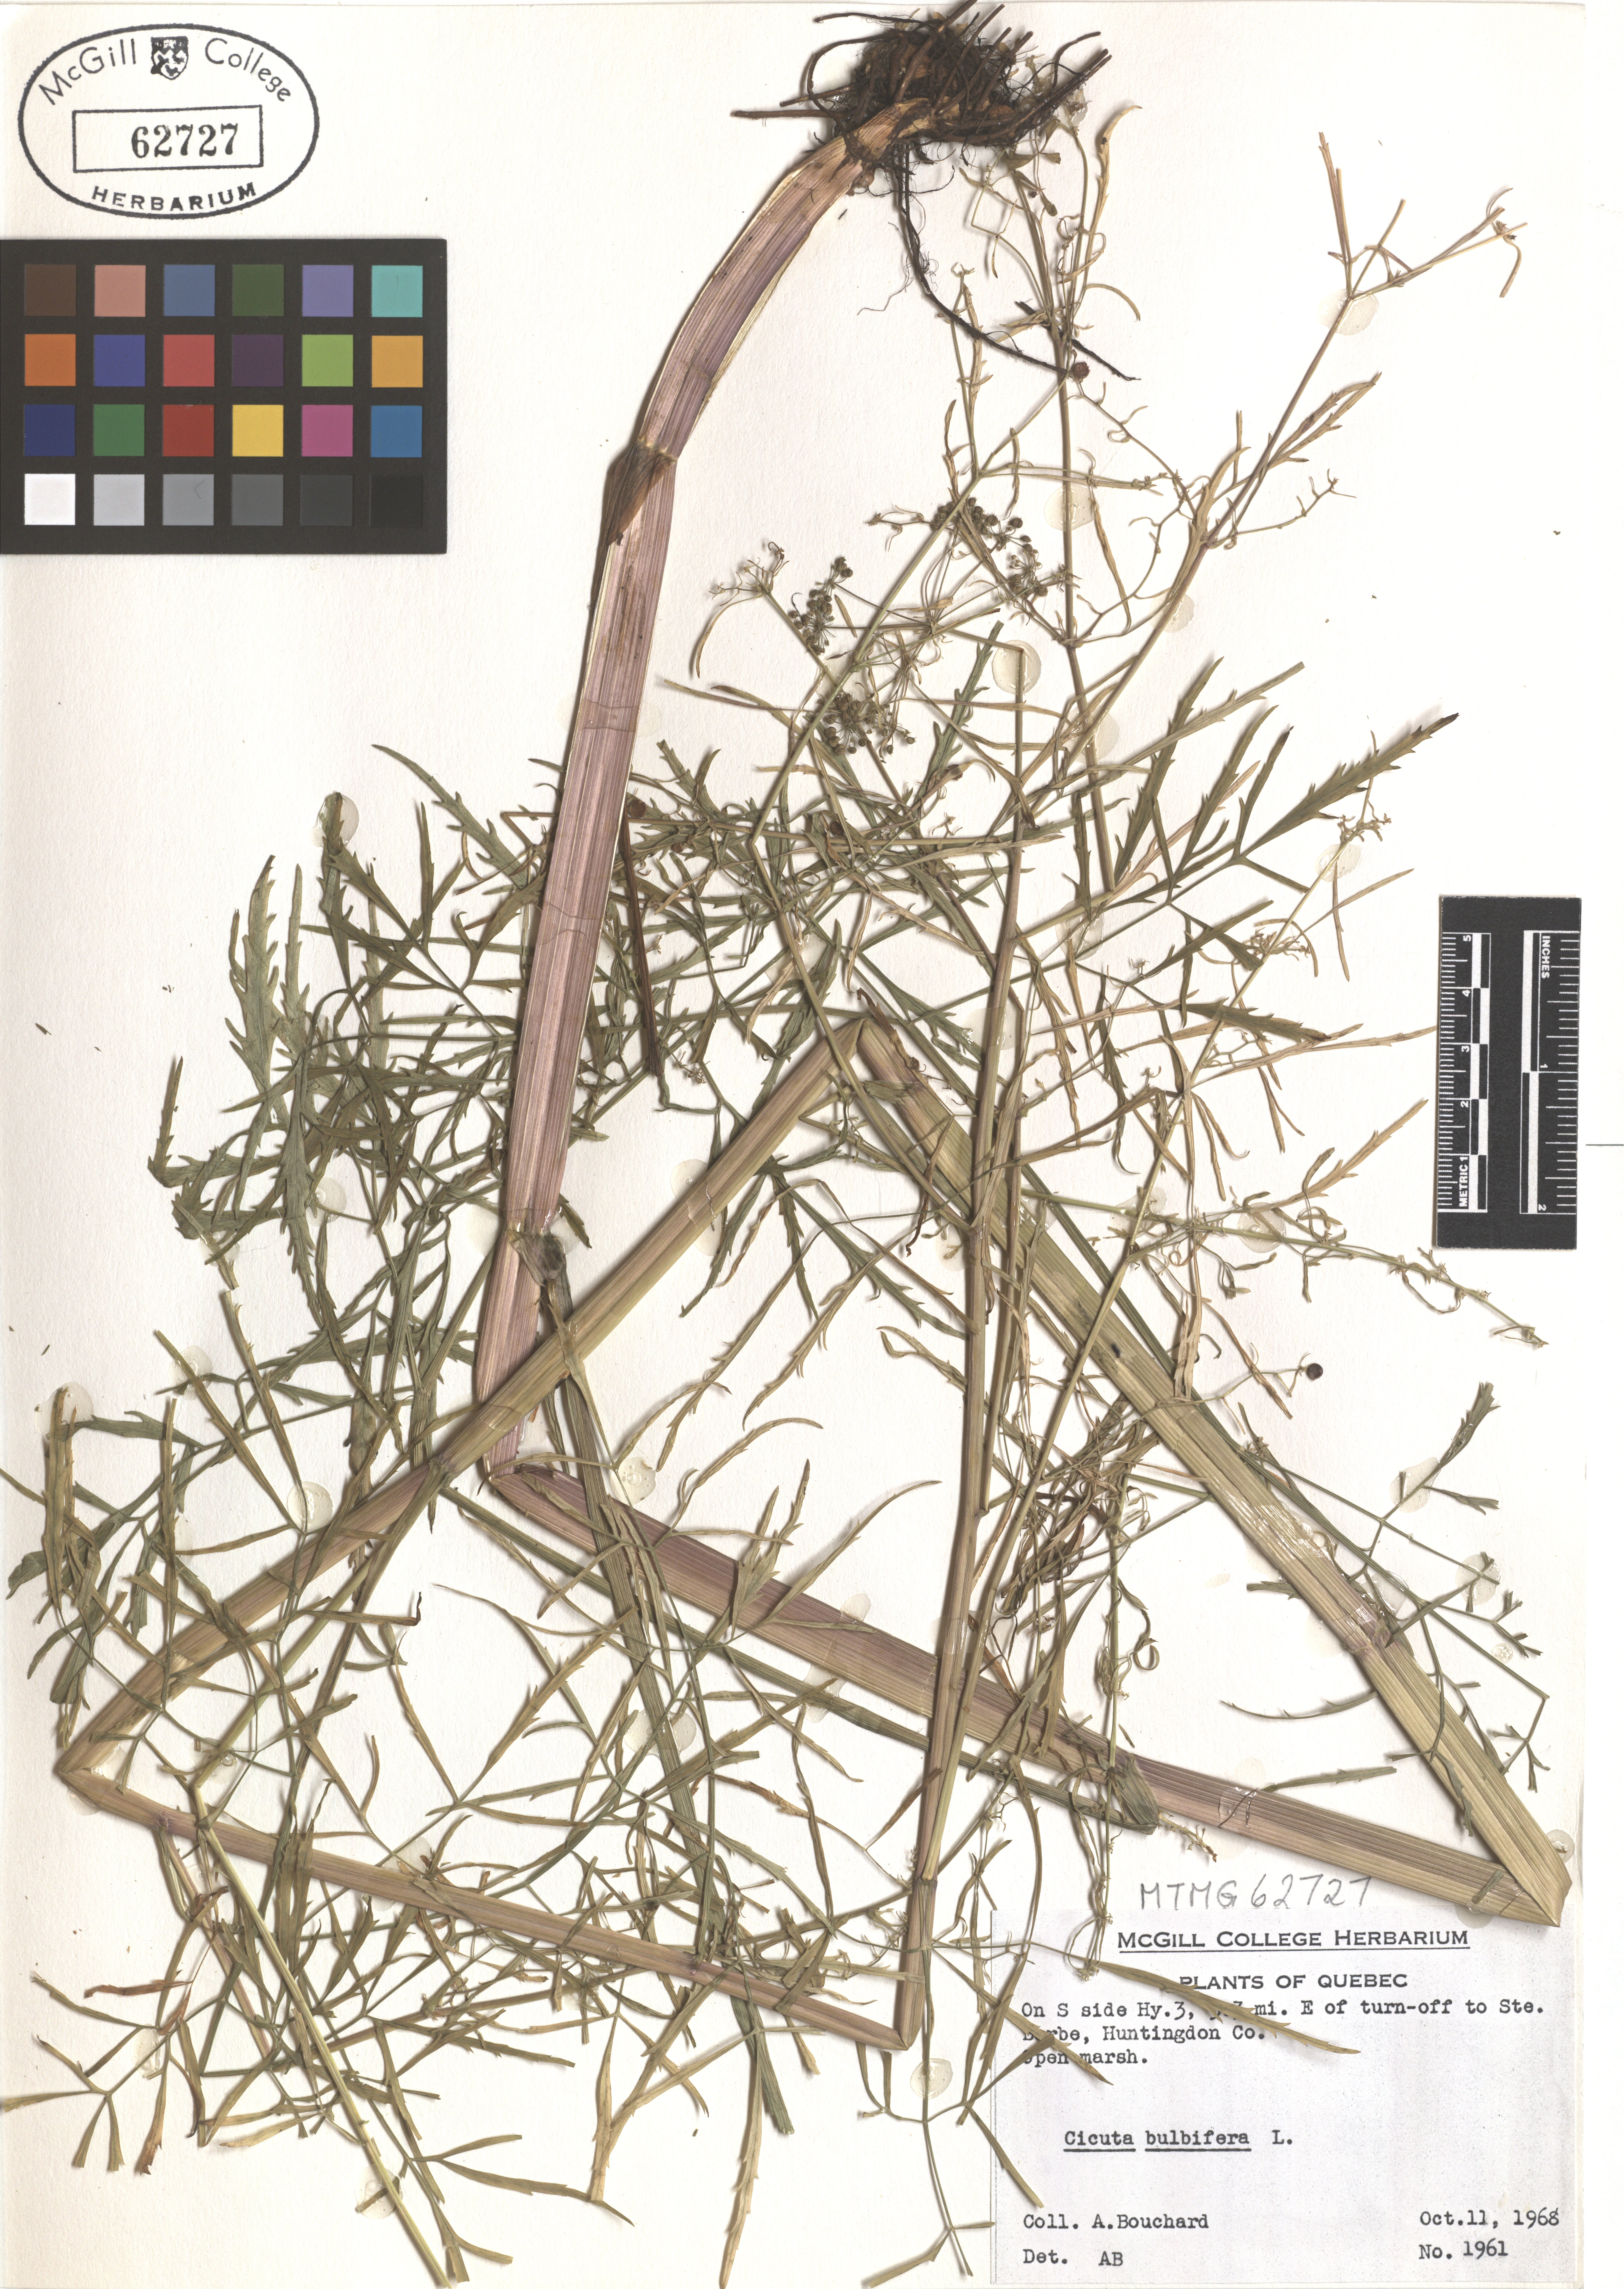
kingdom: Plantae
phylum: Tracheophyta
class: Magnoliopsida
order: Apiales
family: Apiaceae
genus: Cicuta
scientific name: Cicuta bulbifera
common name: Bulb-bearing water-hemlock
